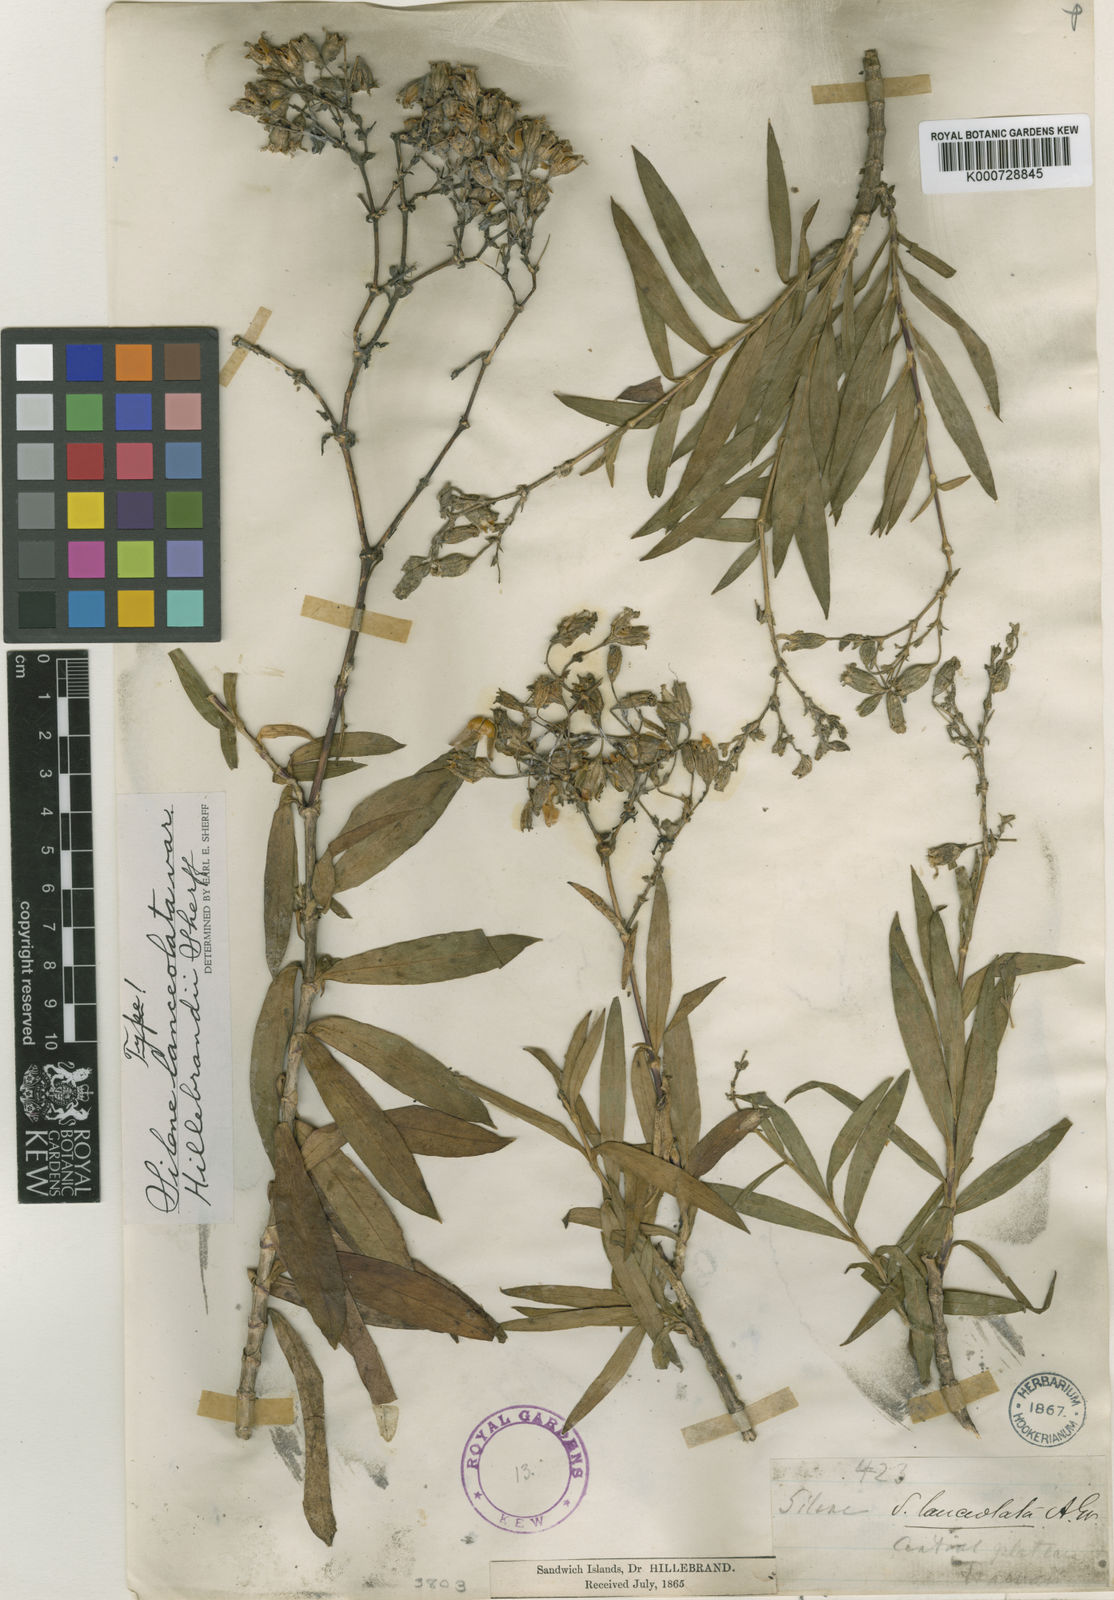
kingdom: Plantae
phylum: Tracheophyta
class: Magnoliopsida
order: Caryophyllales
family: Caryophyllaceae
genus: Silene
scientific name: Silene lanceolata
